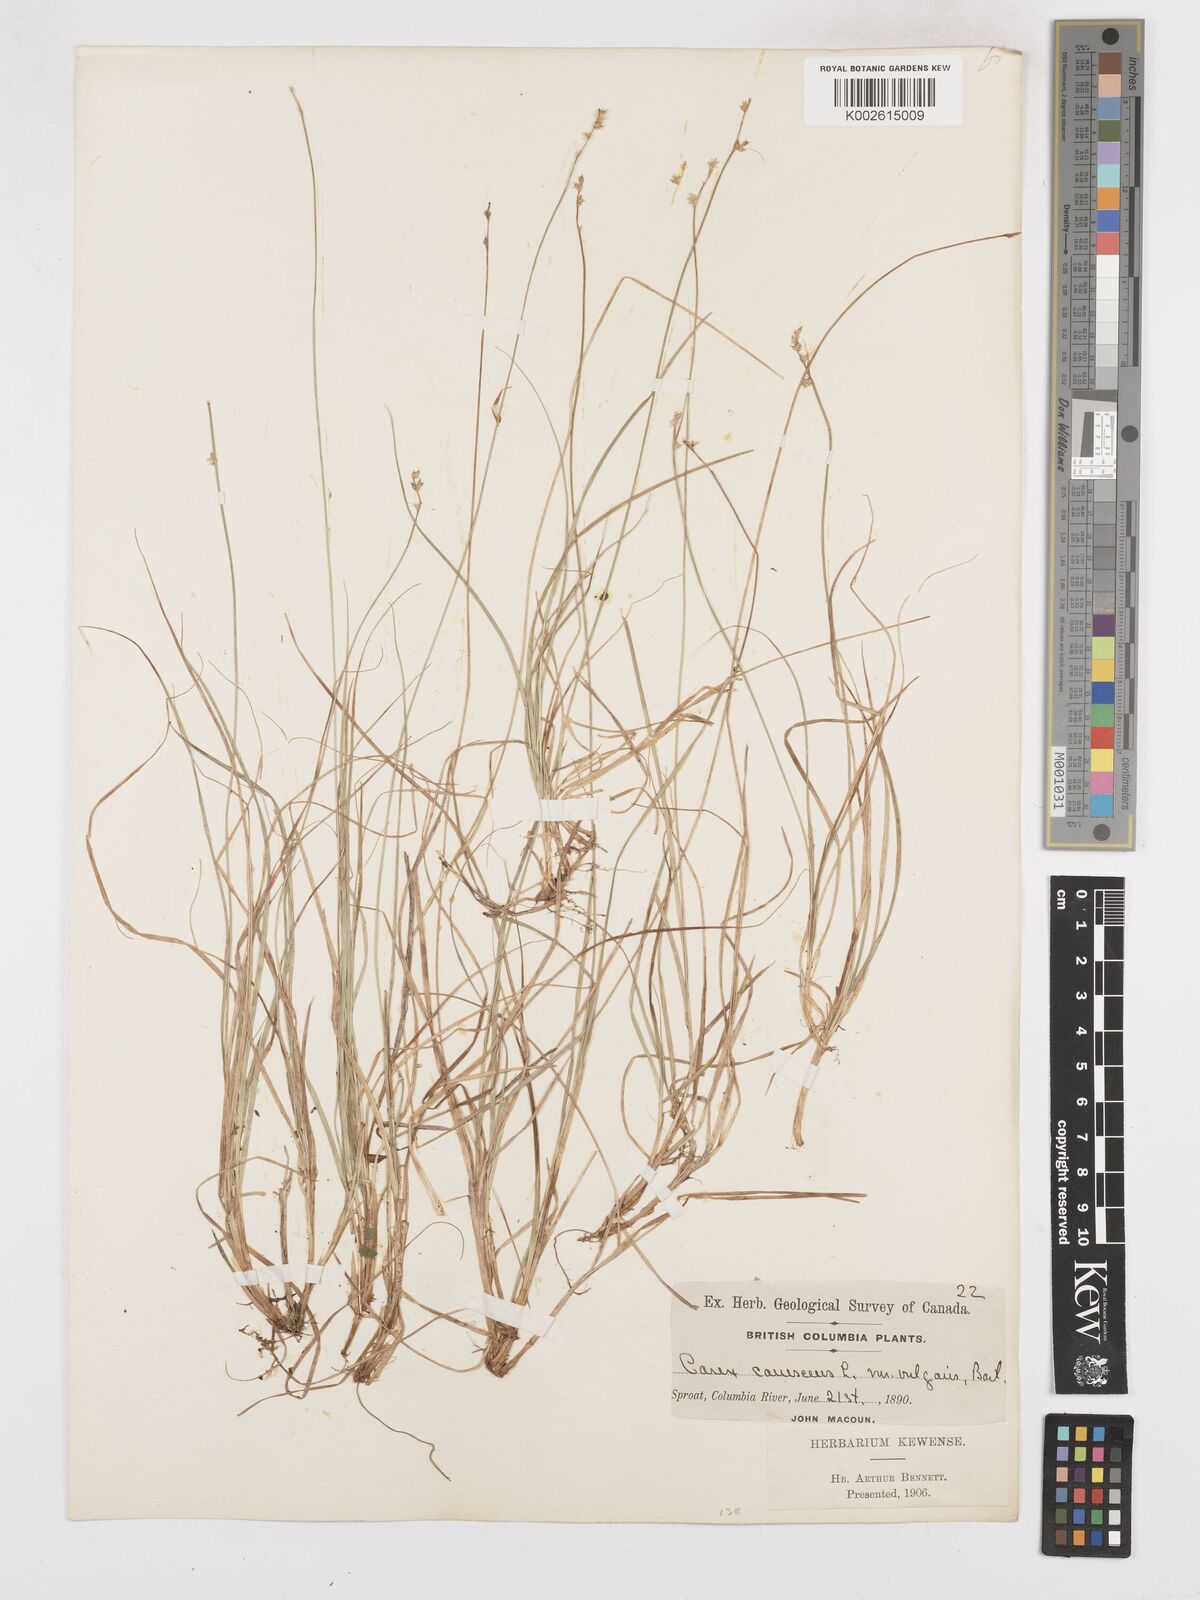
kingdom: Plantae
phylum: Tracheophyta
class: Liliopsida
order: Poales
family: Cyperaceae
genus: Carex
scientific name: Carex seorsa
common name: Swamp star sedge
